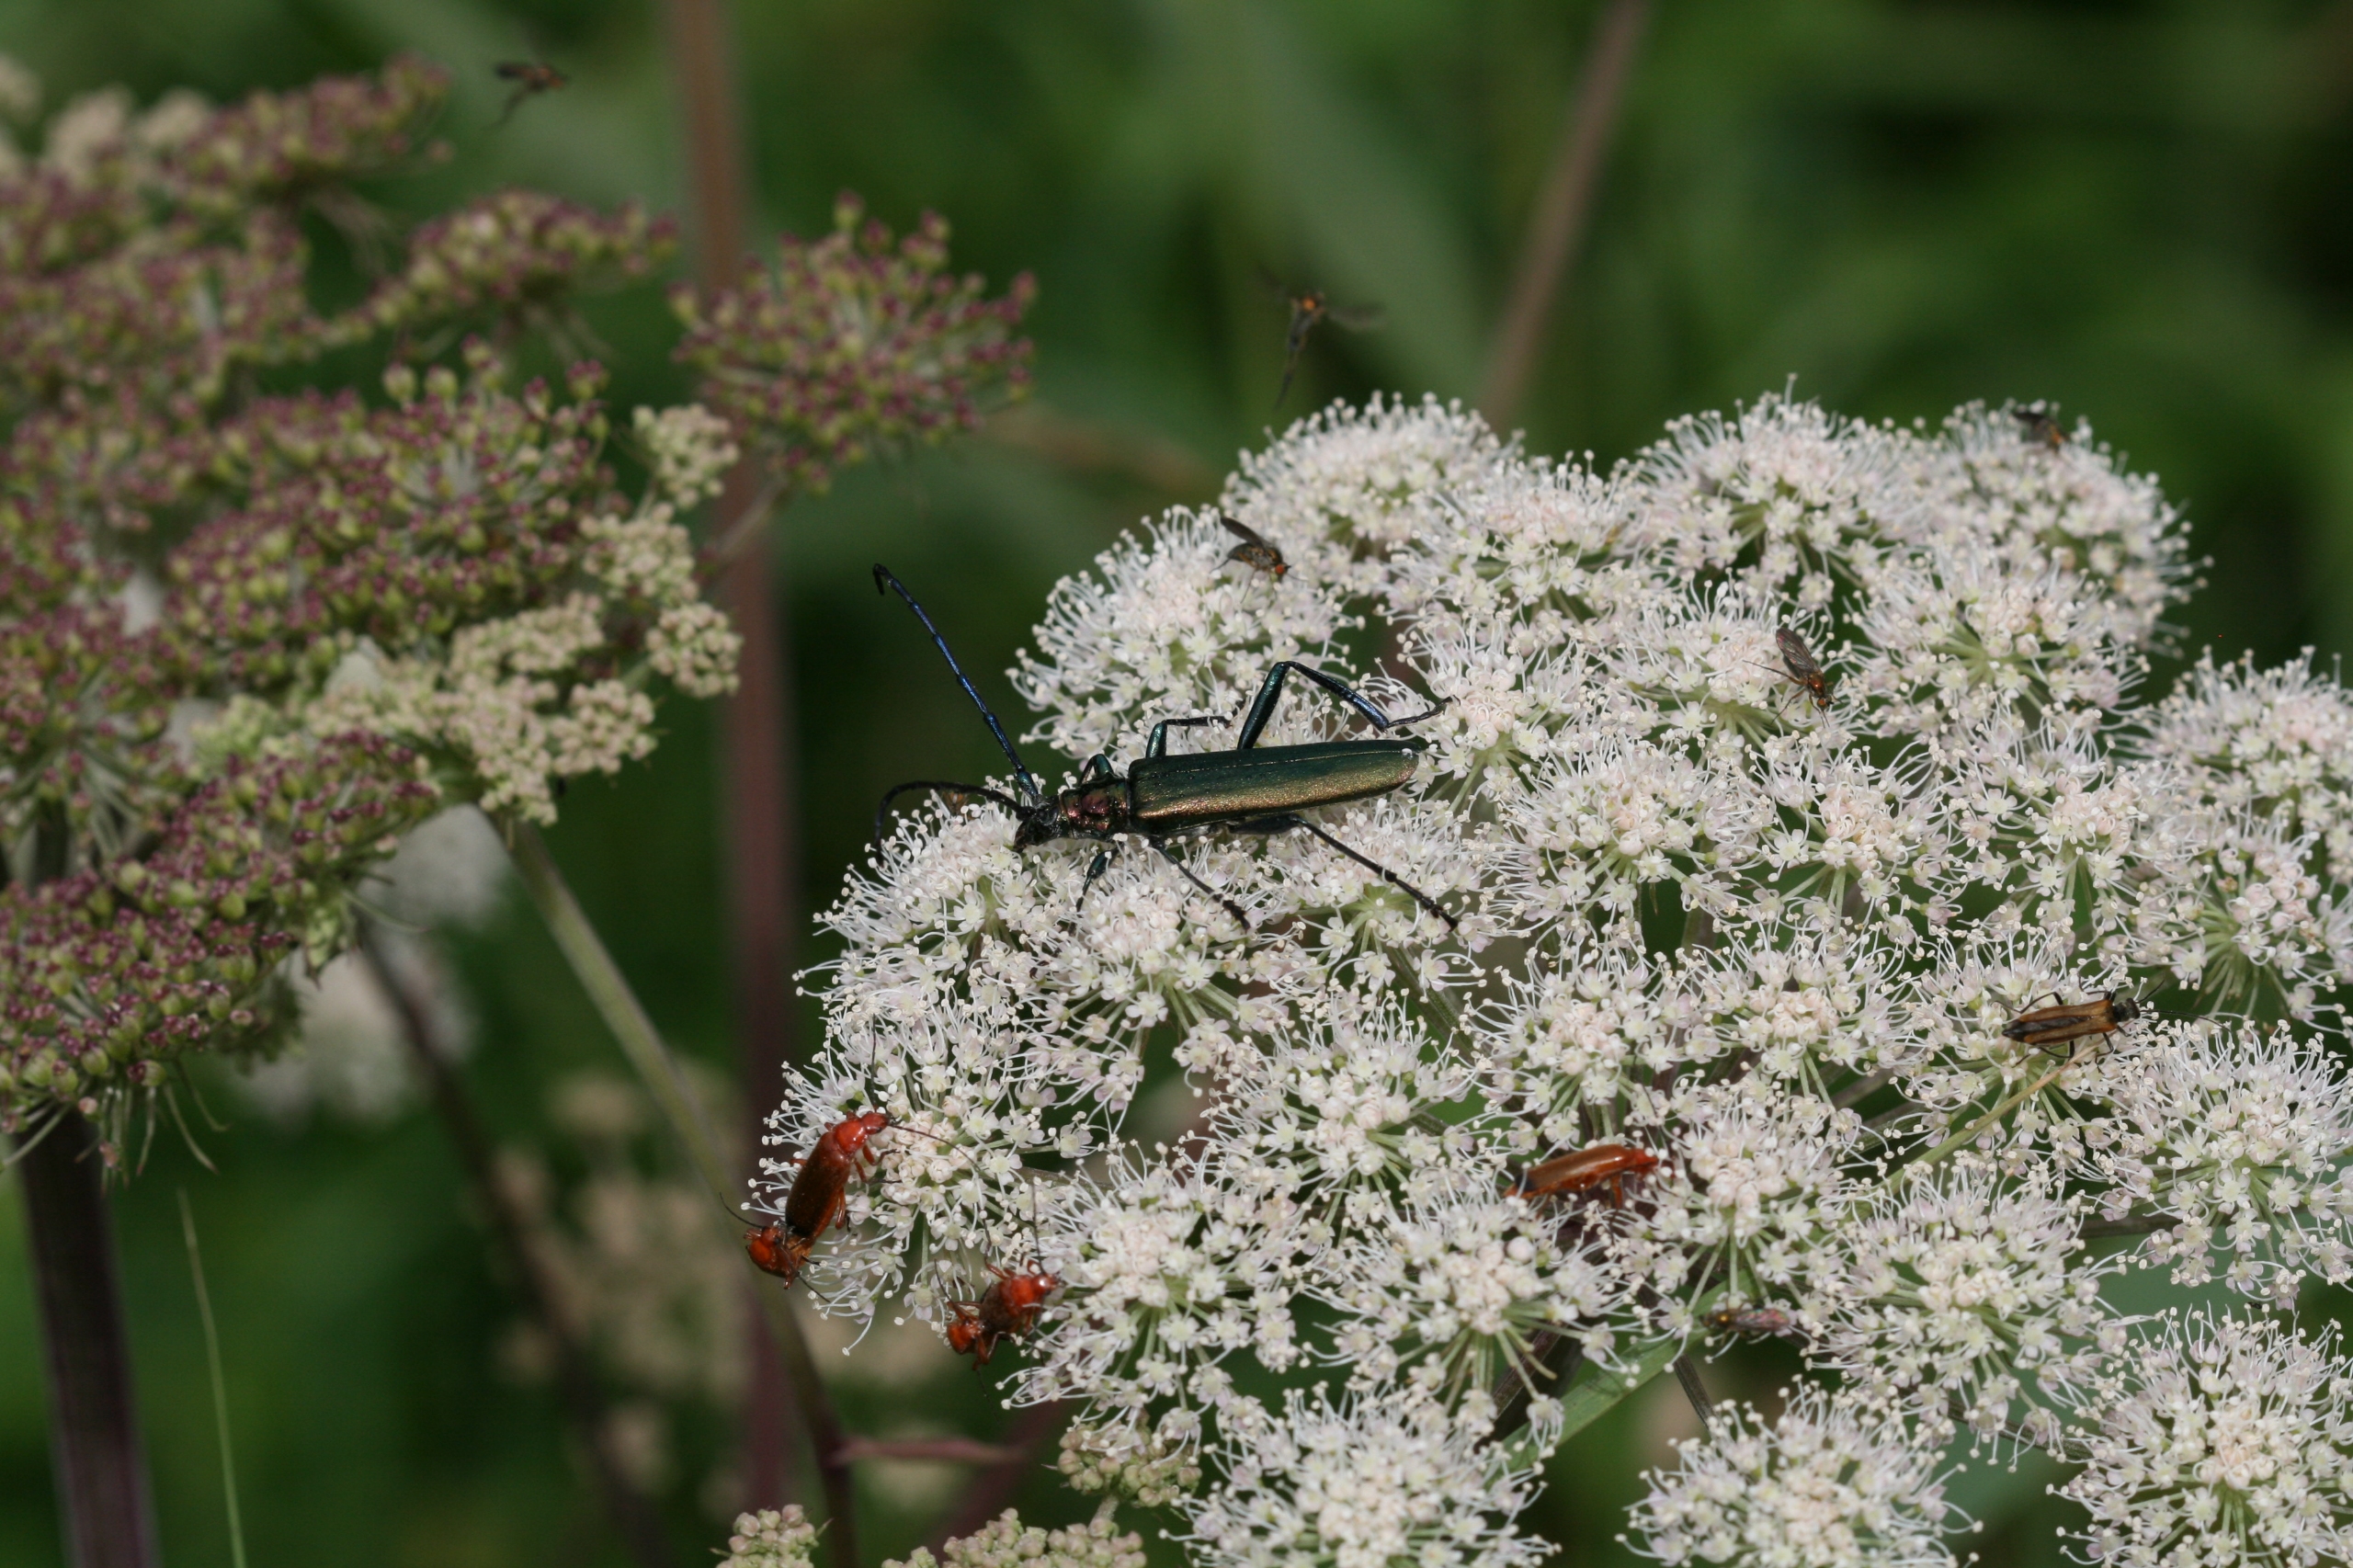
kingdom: Animalia
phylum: Arthropoda
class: Insecta
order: Coleoptera
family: Cerambycidae
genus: Aromia
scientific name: Aromia moschata
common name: Moskusbuk
